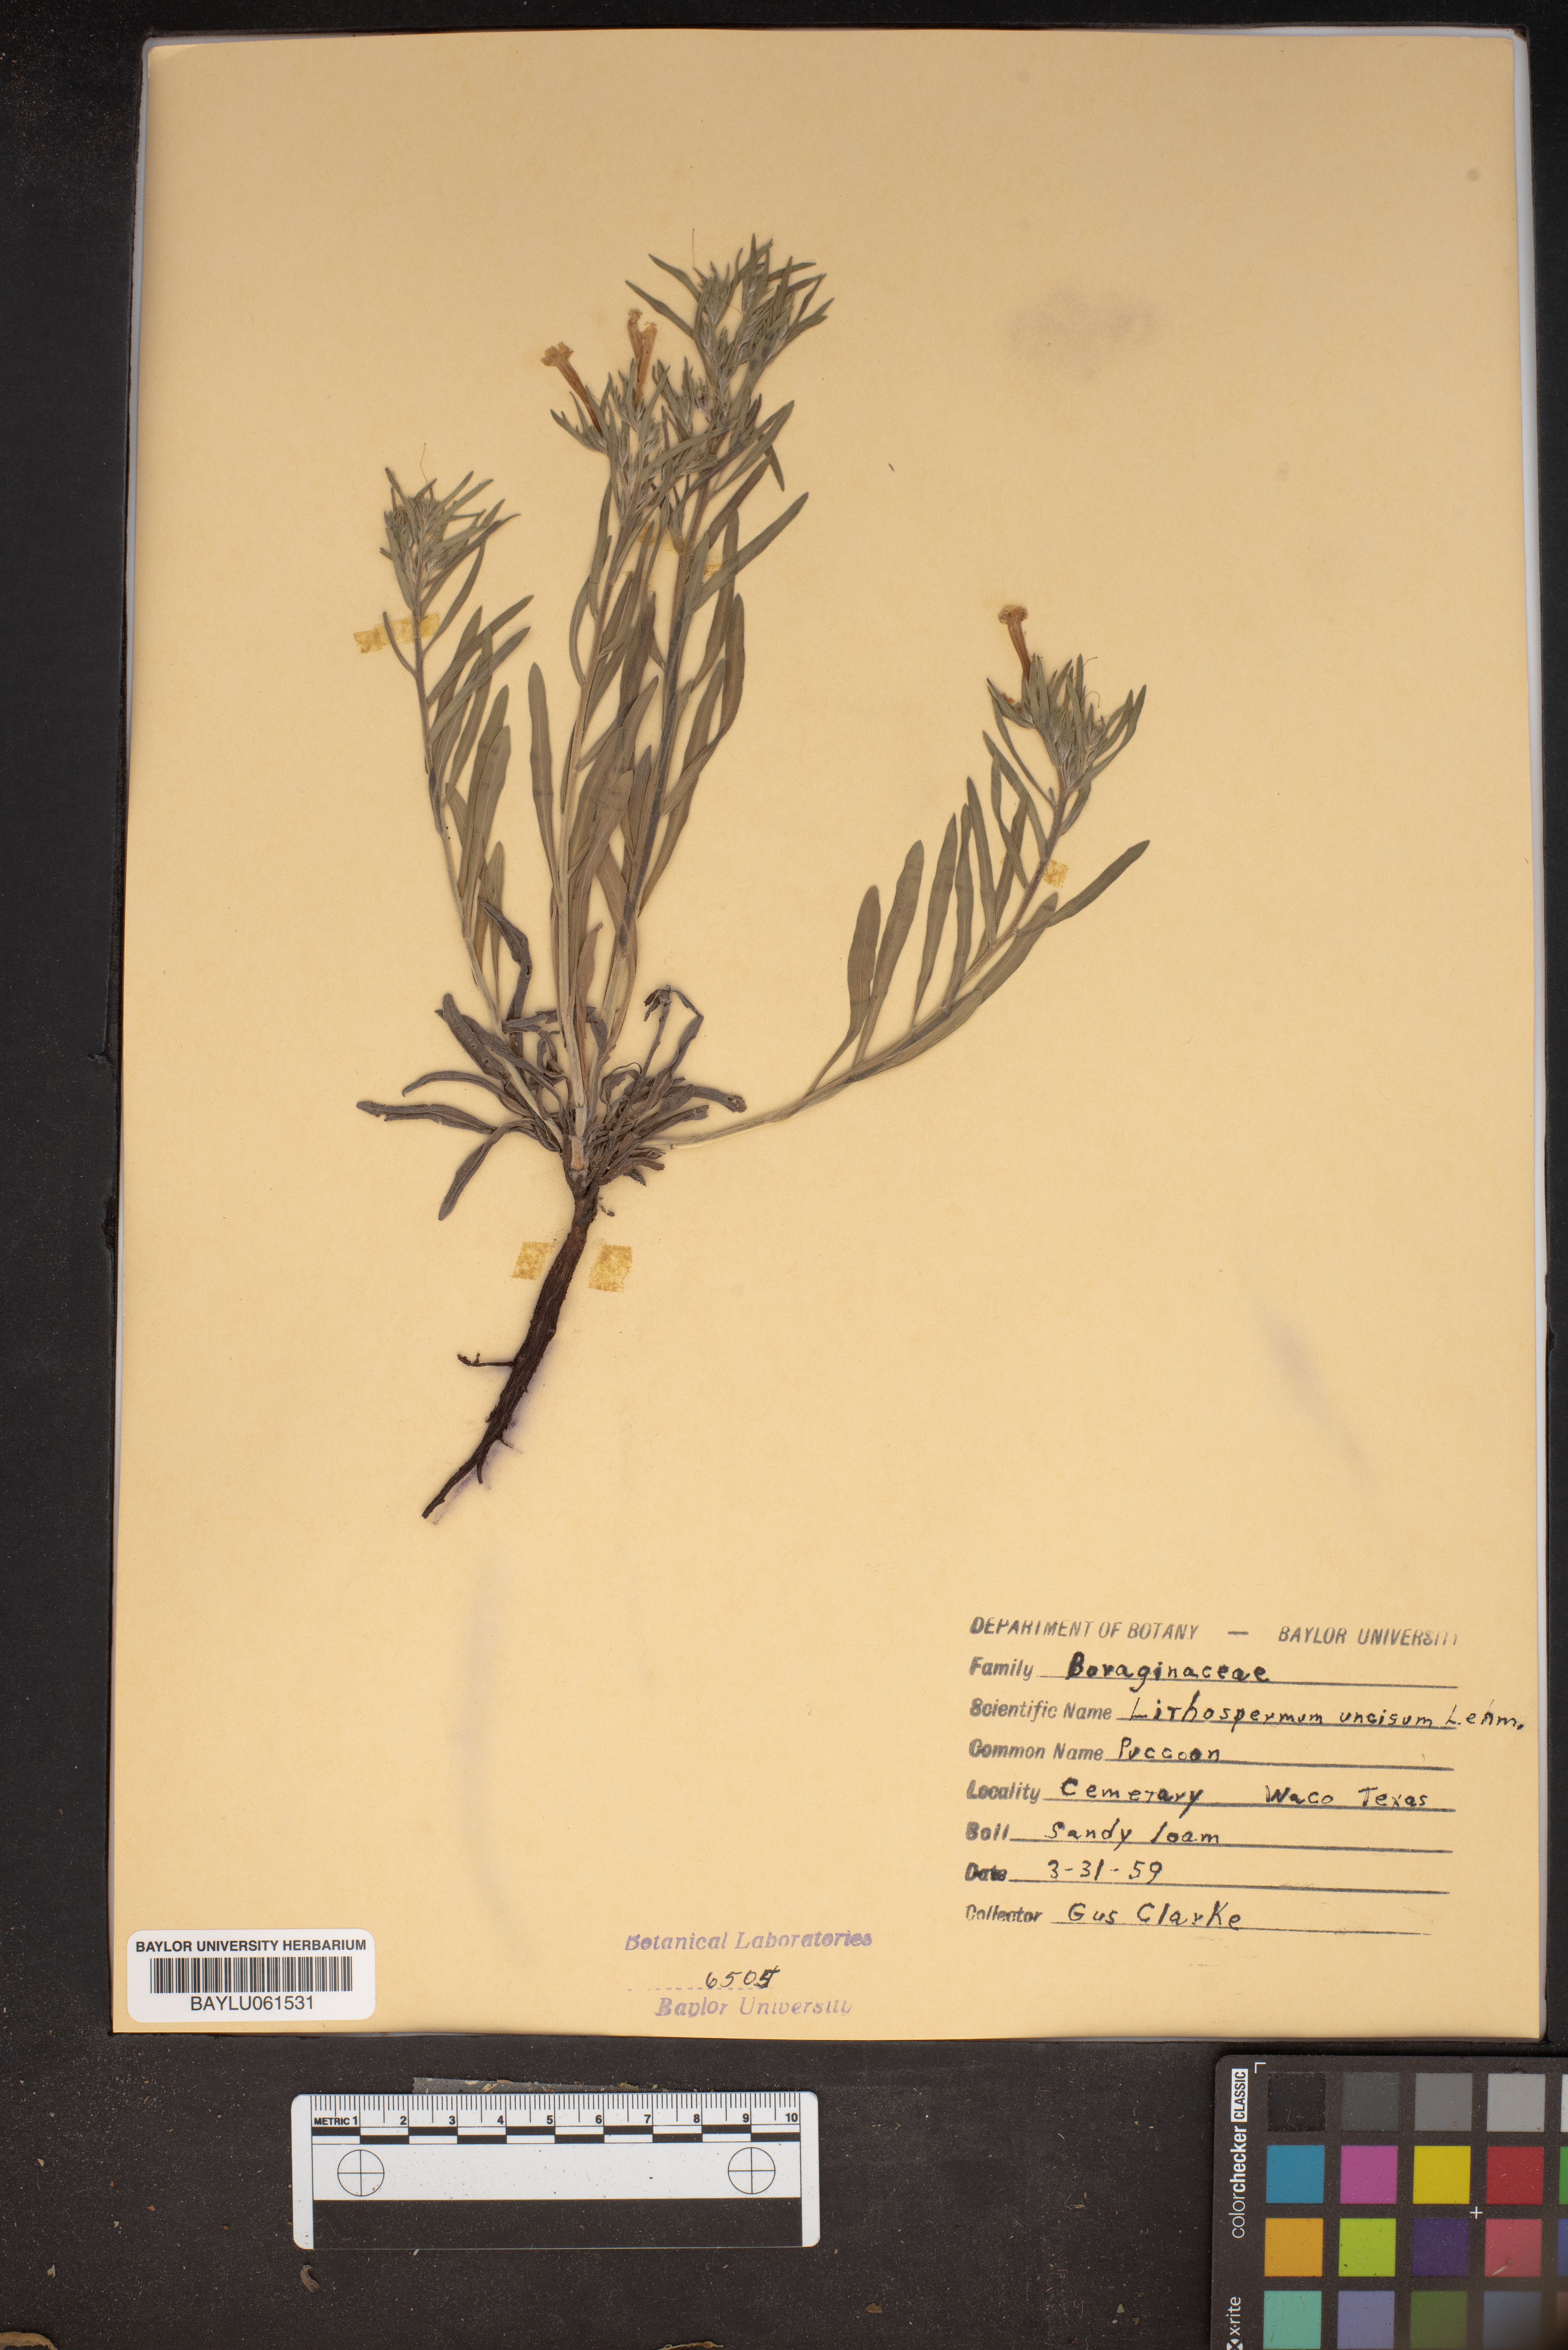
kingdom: Plantae
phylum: Tracheophyta
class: Magnoliopsida
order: Boraginales
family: Boraginaceae
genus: Lithospermum
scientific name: Lithospermum incisum
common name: Fringed gromwell
